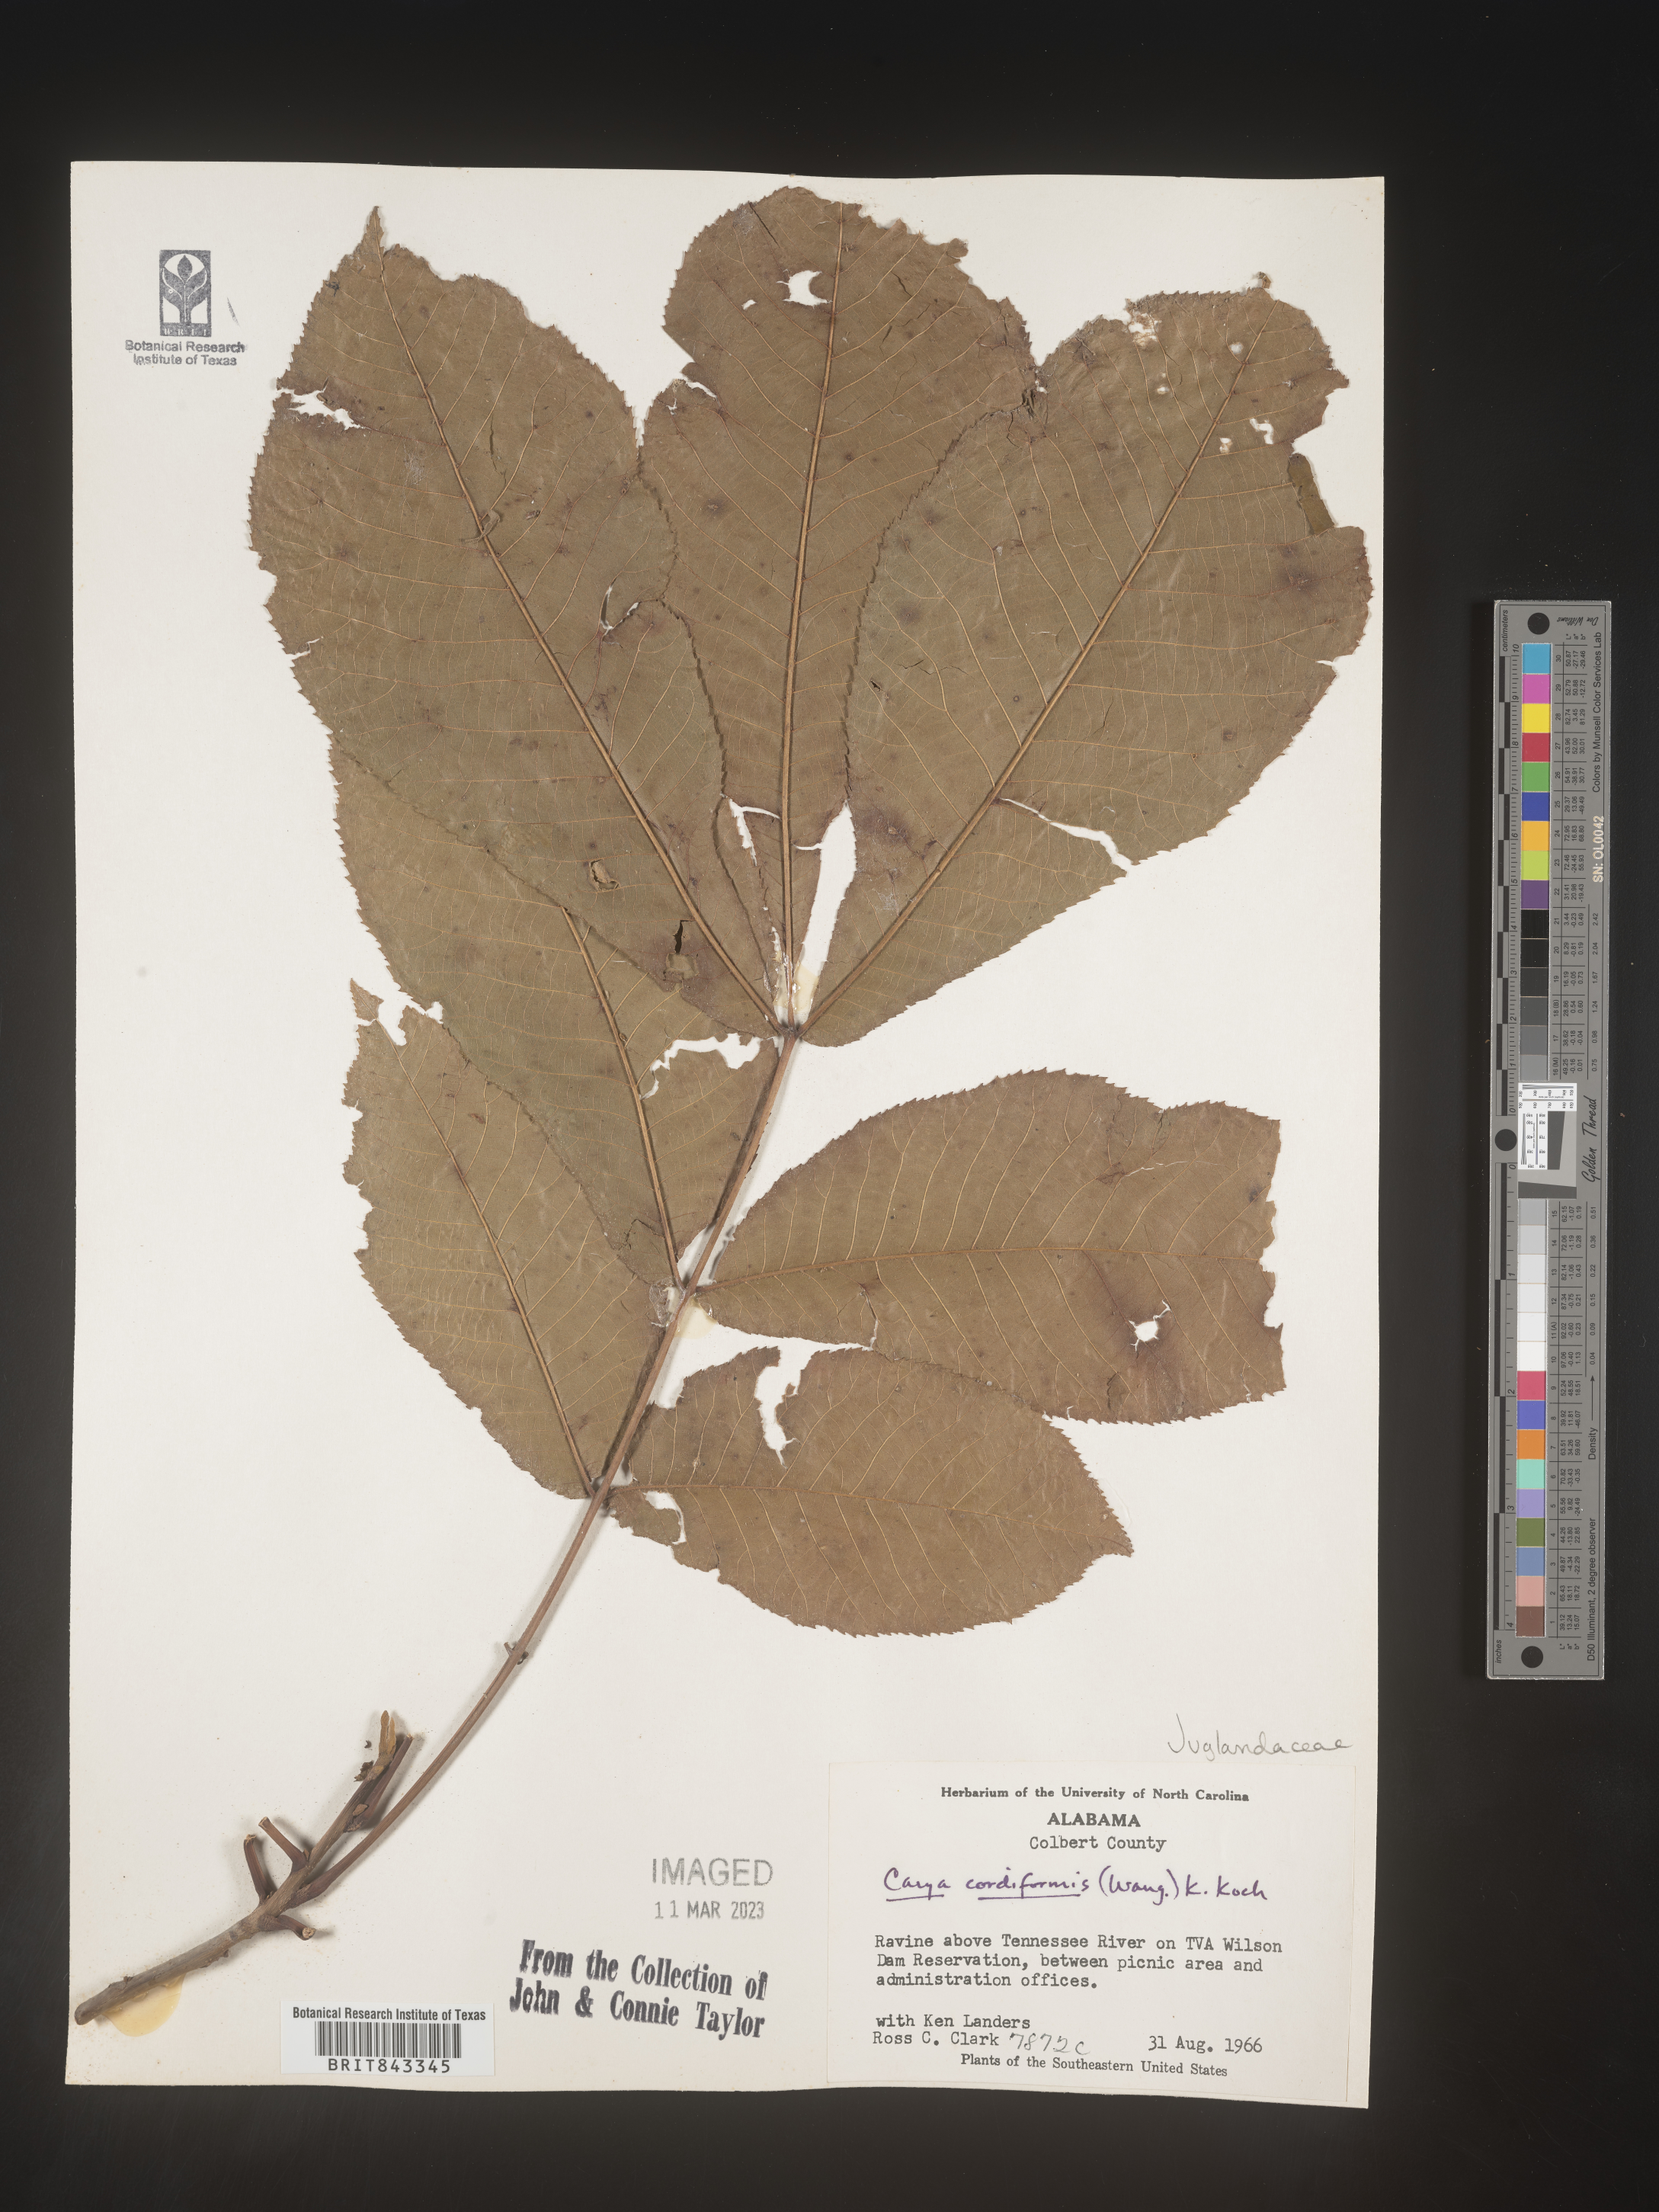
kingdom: Plantae
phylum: Tracheophyta
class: Magnoliopsida
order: Fagales
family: Juglandaceae
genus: Carya
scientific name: Carya cordiformis
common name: Bitternut hickory
